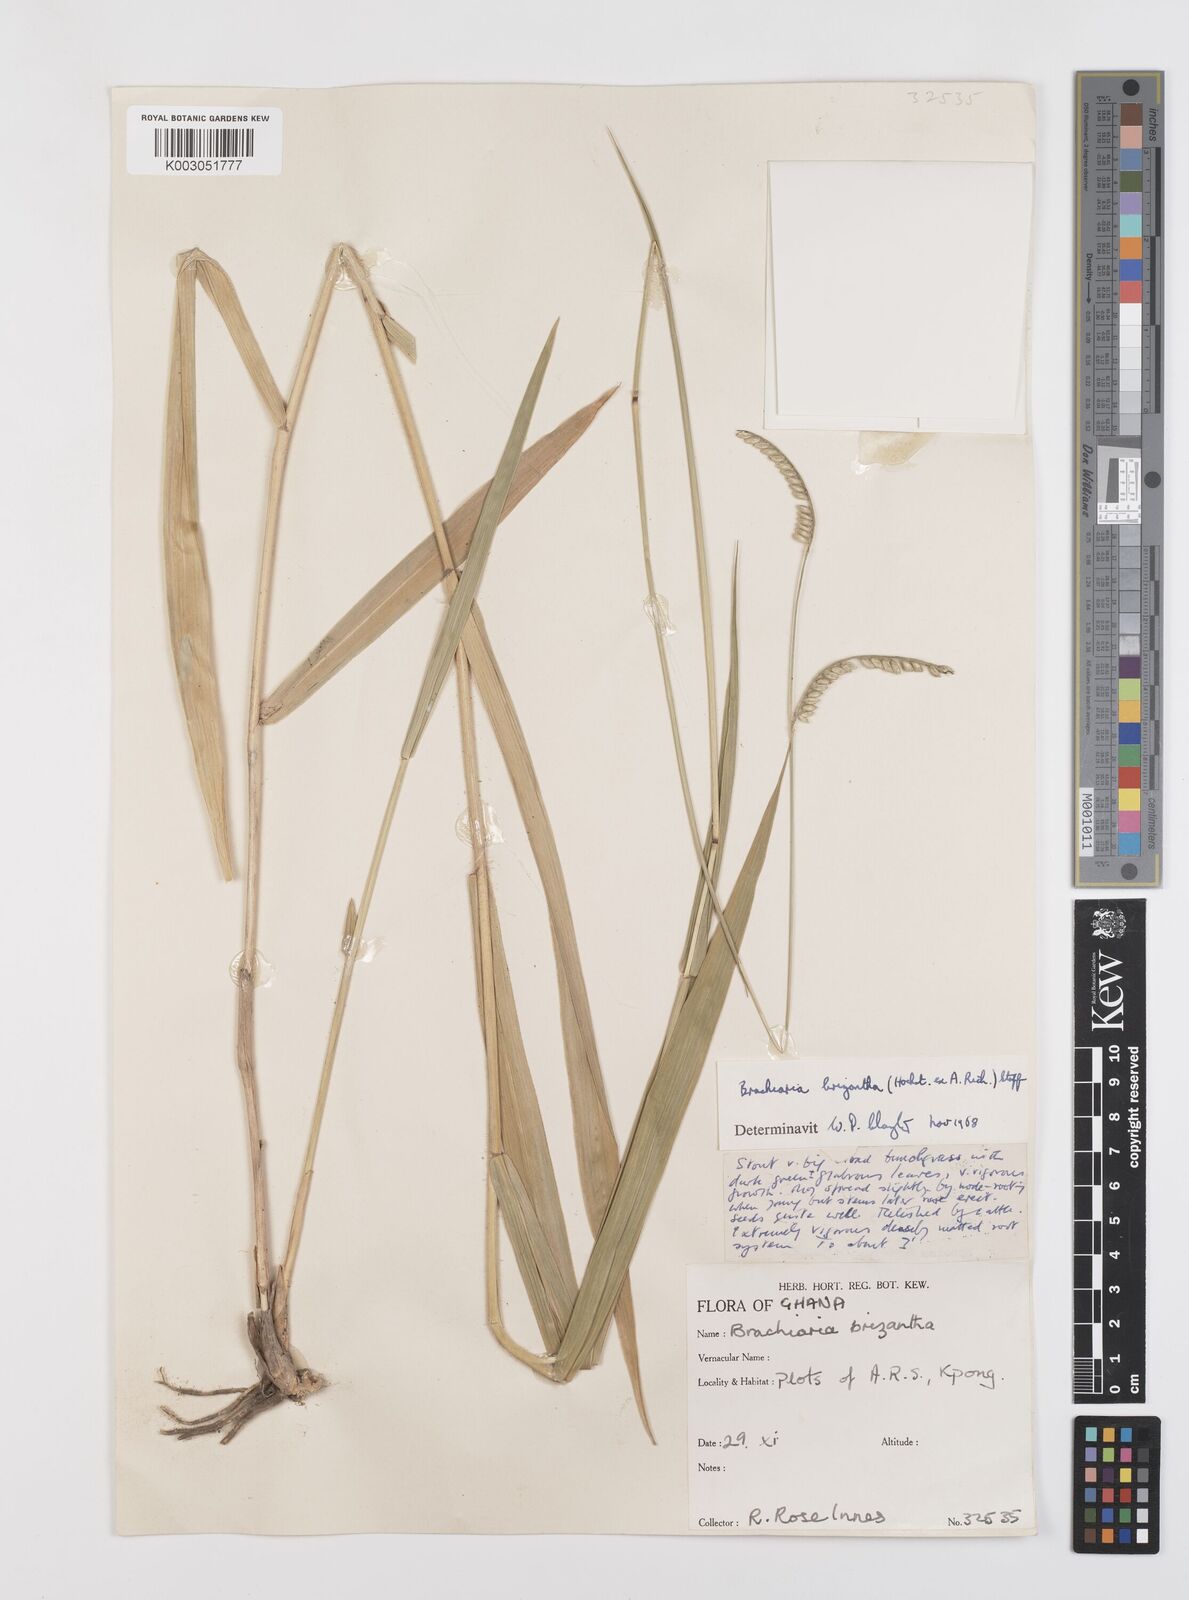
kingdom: Plantae
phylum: Tracheophyta
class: Liliopsida
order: Poales
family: Poaceae
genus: Urochloa
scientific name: Urochloa brizantha
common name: Palisade signalgrass
